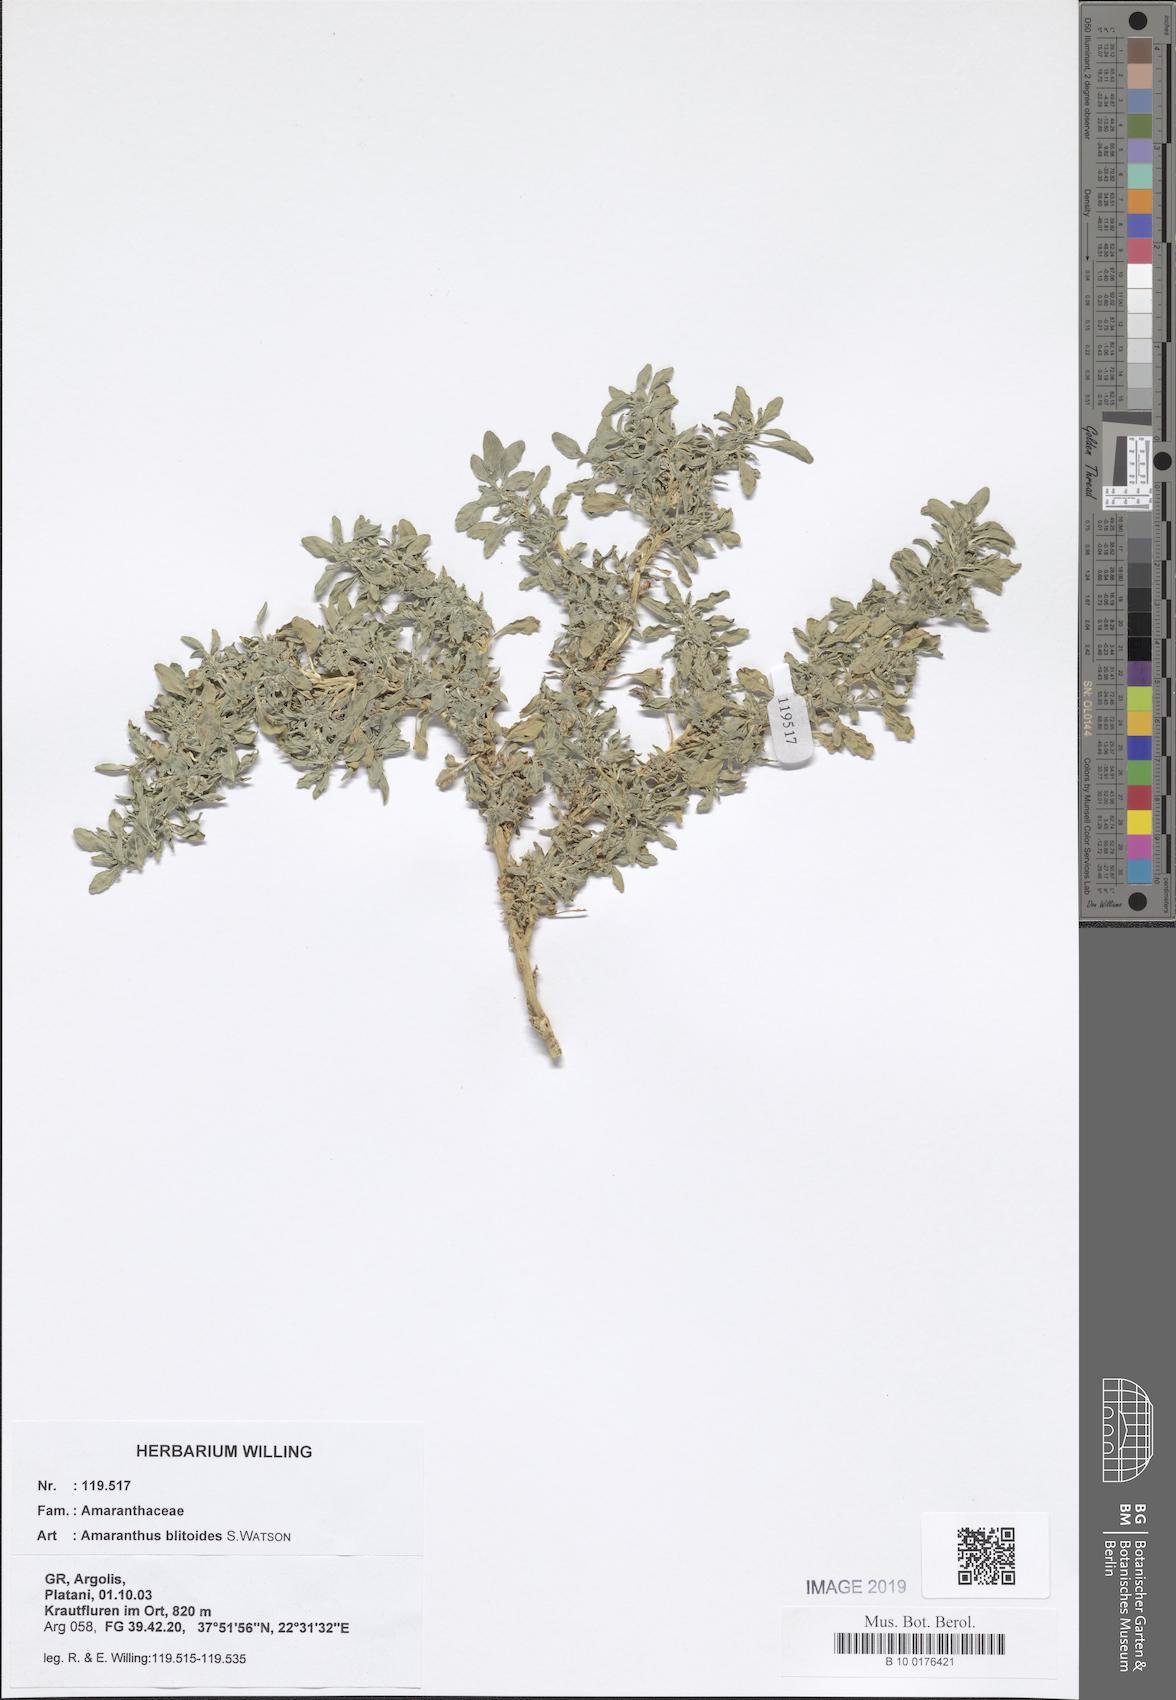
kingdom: Plantae
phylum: Tracheophyta
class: Magnoliopsida
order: Caryophyllales
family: Amaranthaceae
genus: Amaranthus
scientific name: Amaranthus blitoides
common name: Prostrate pigweed
